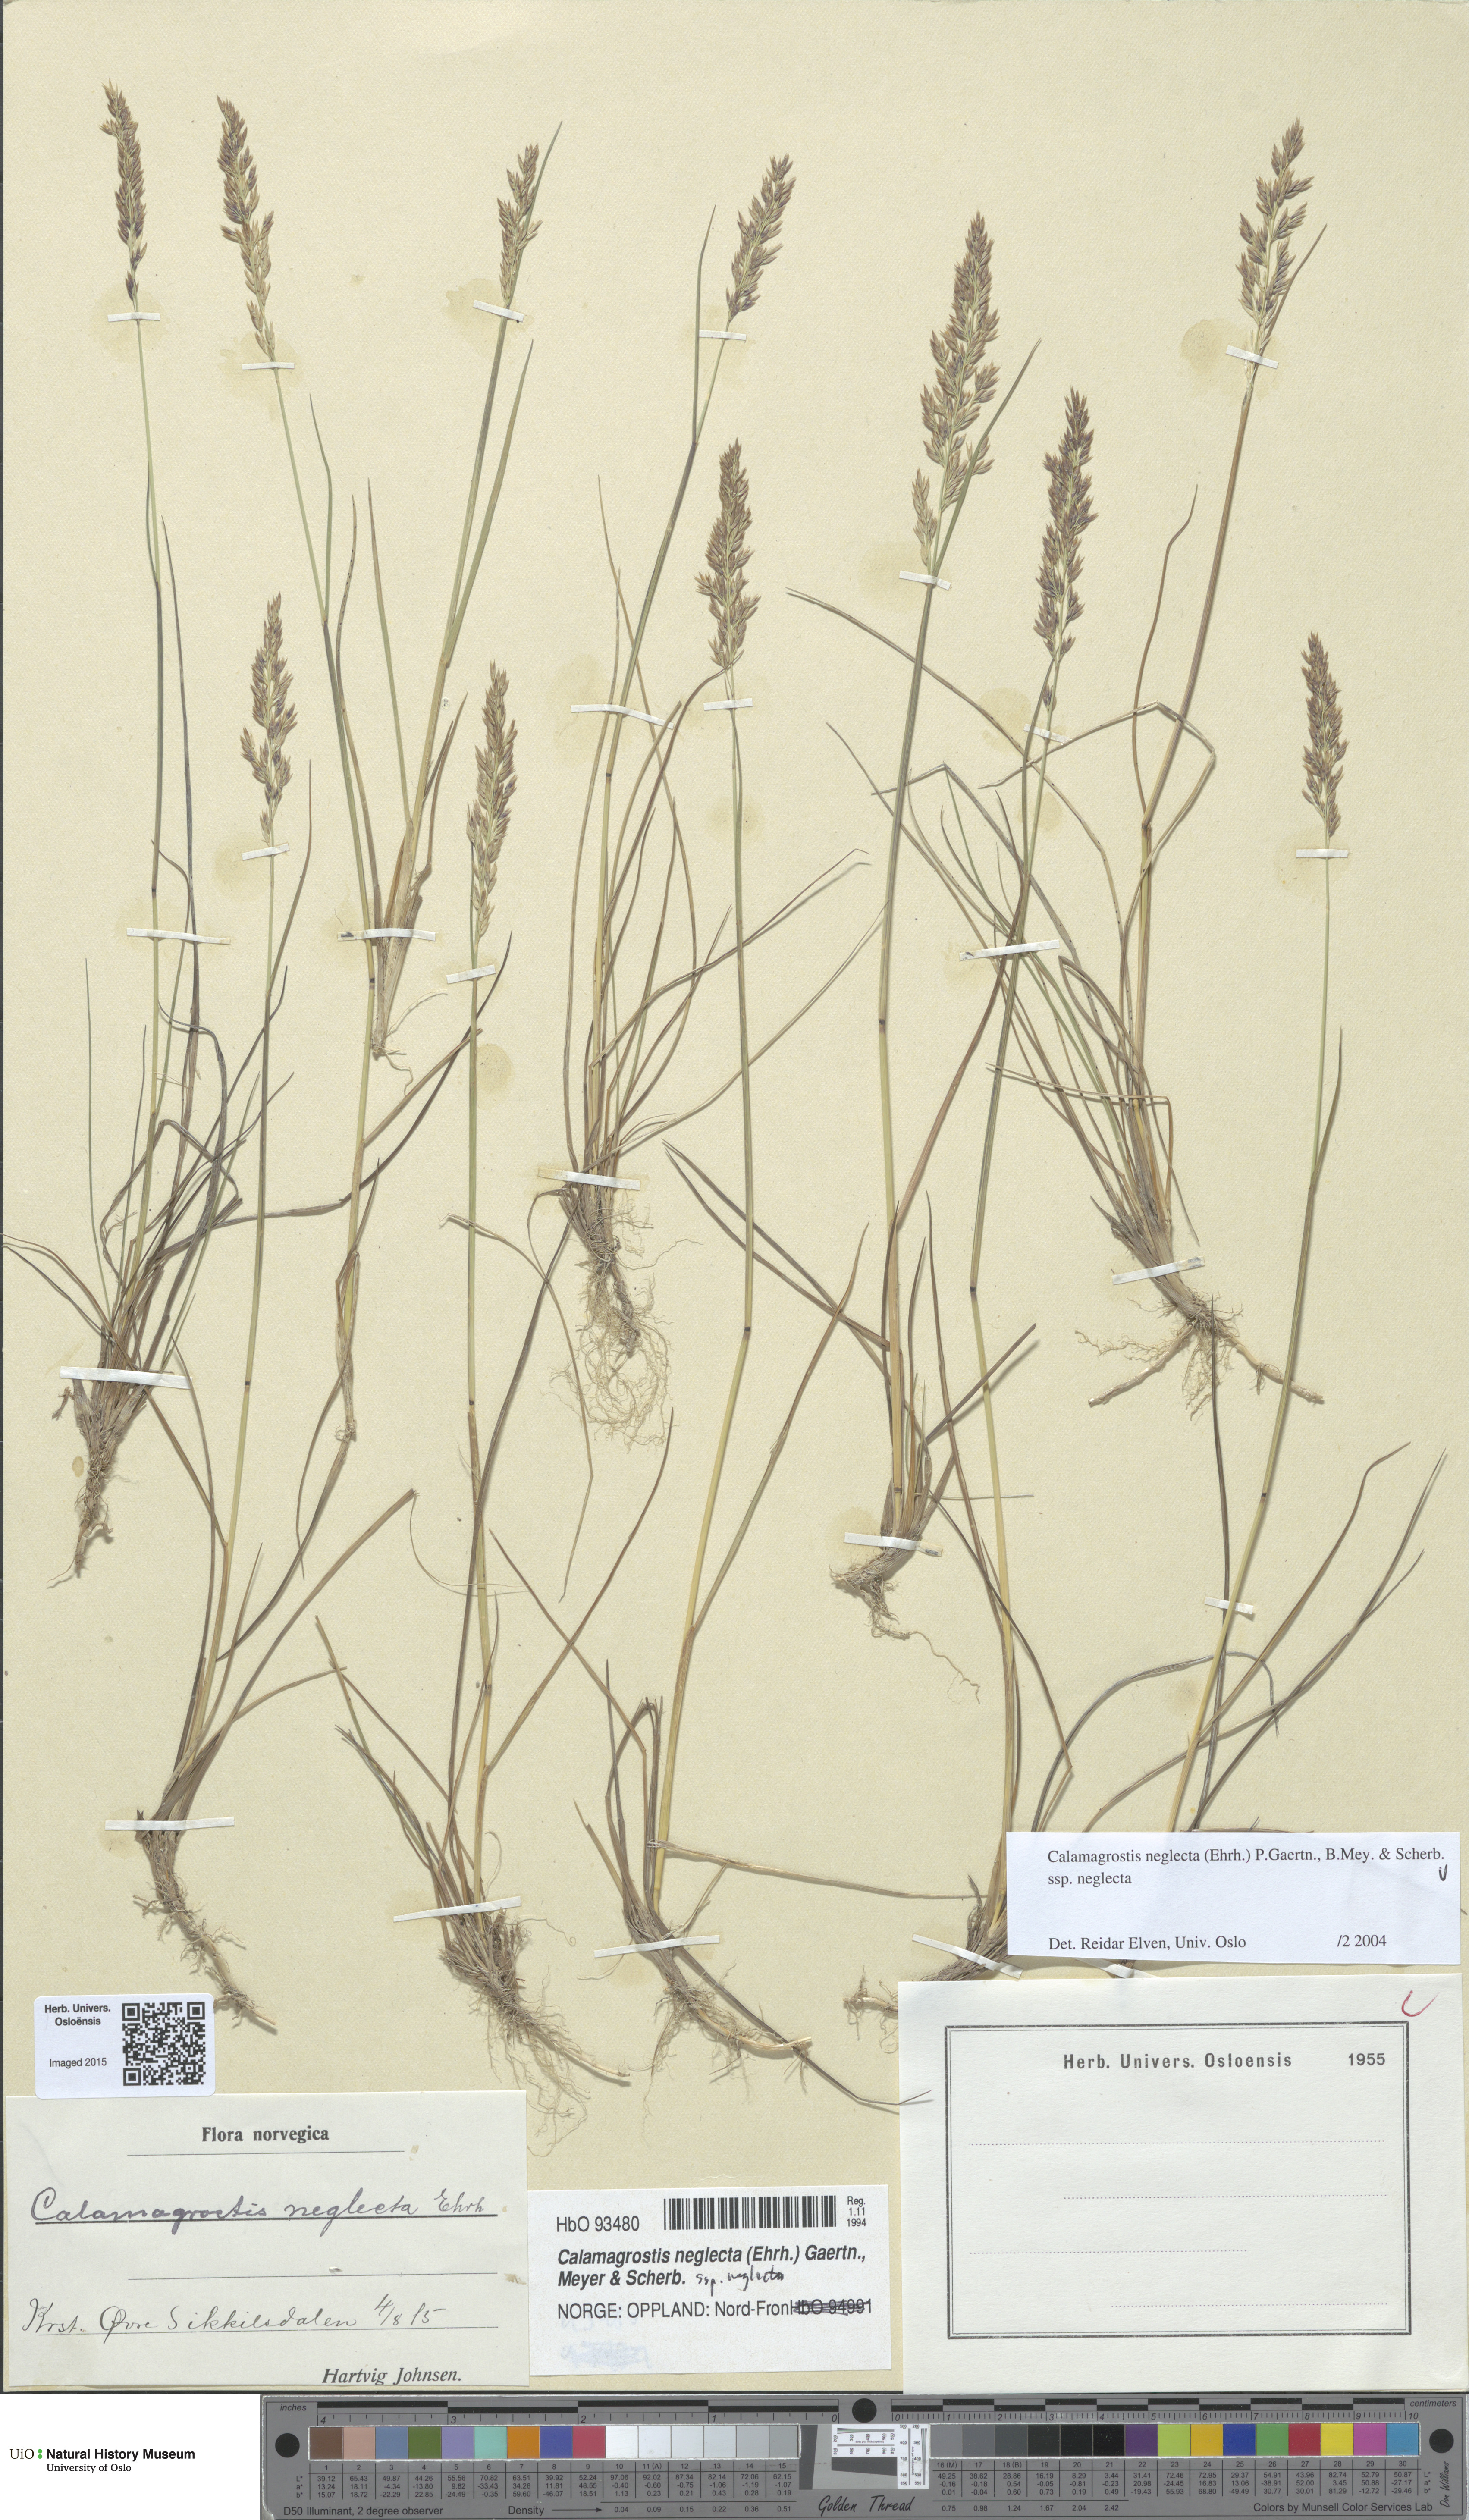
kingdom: Plantae
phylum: Tracheophyta
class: Liliopsida
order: Poales
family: Poaceae
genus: Achnatherum
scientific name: Achnatherum calamagrostis
